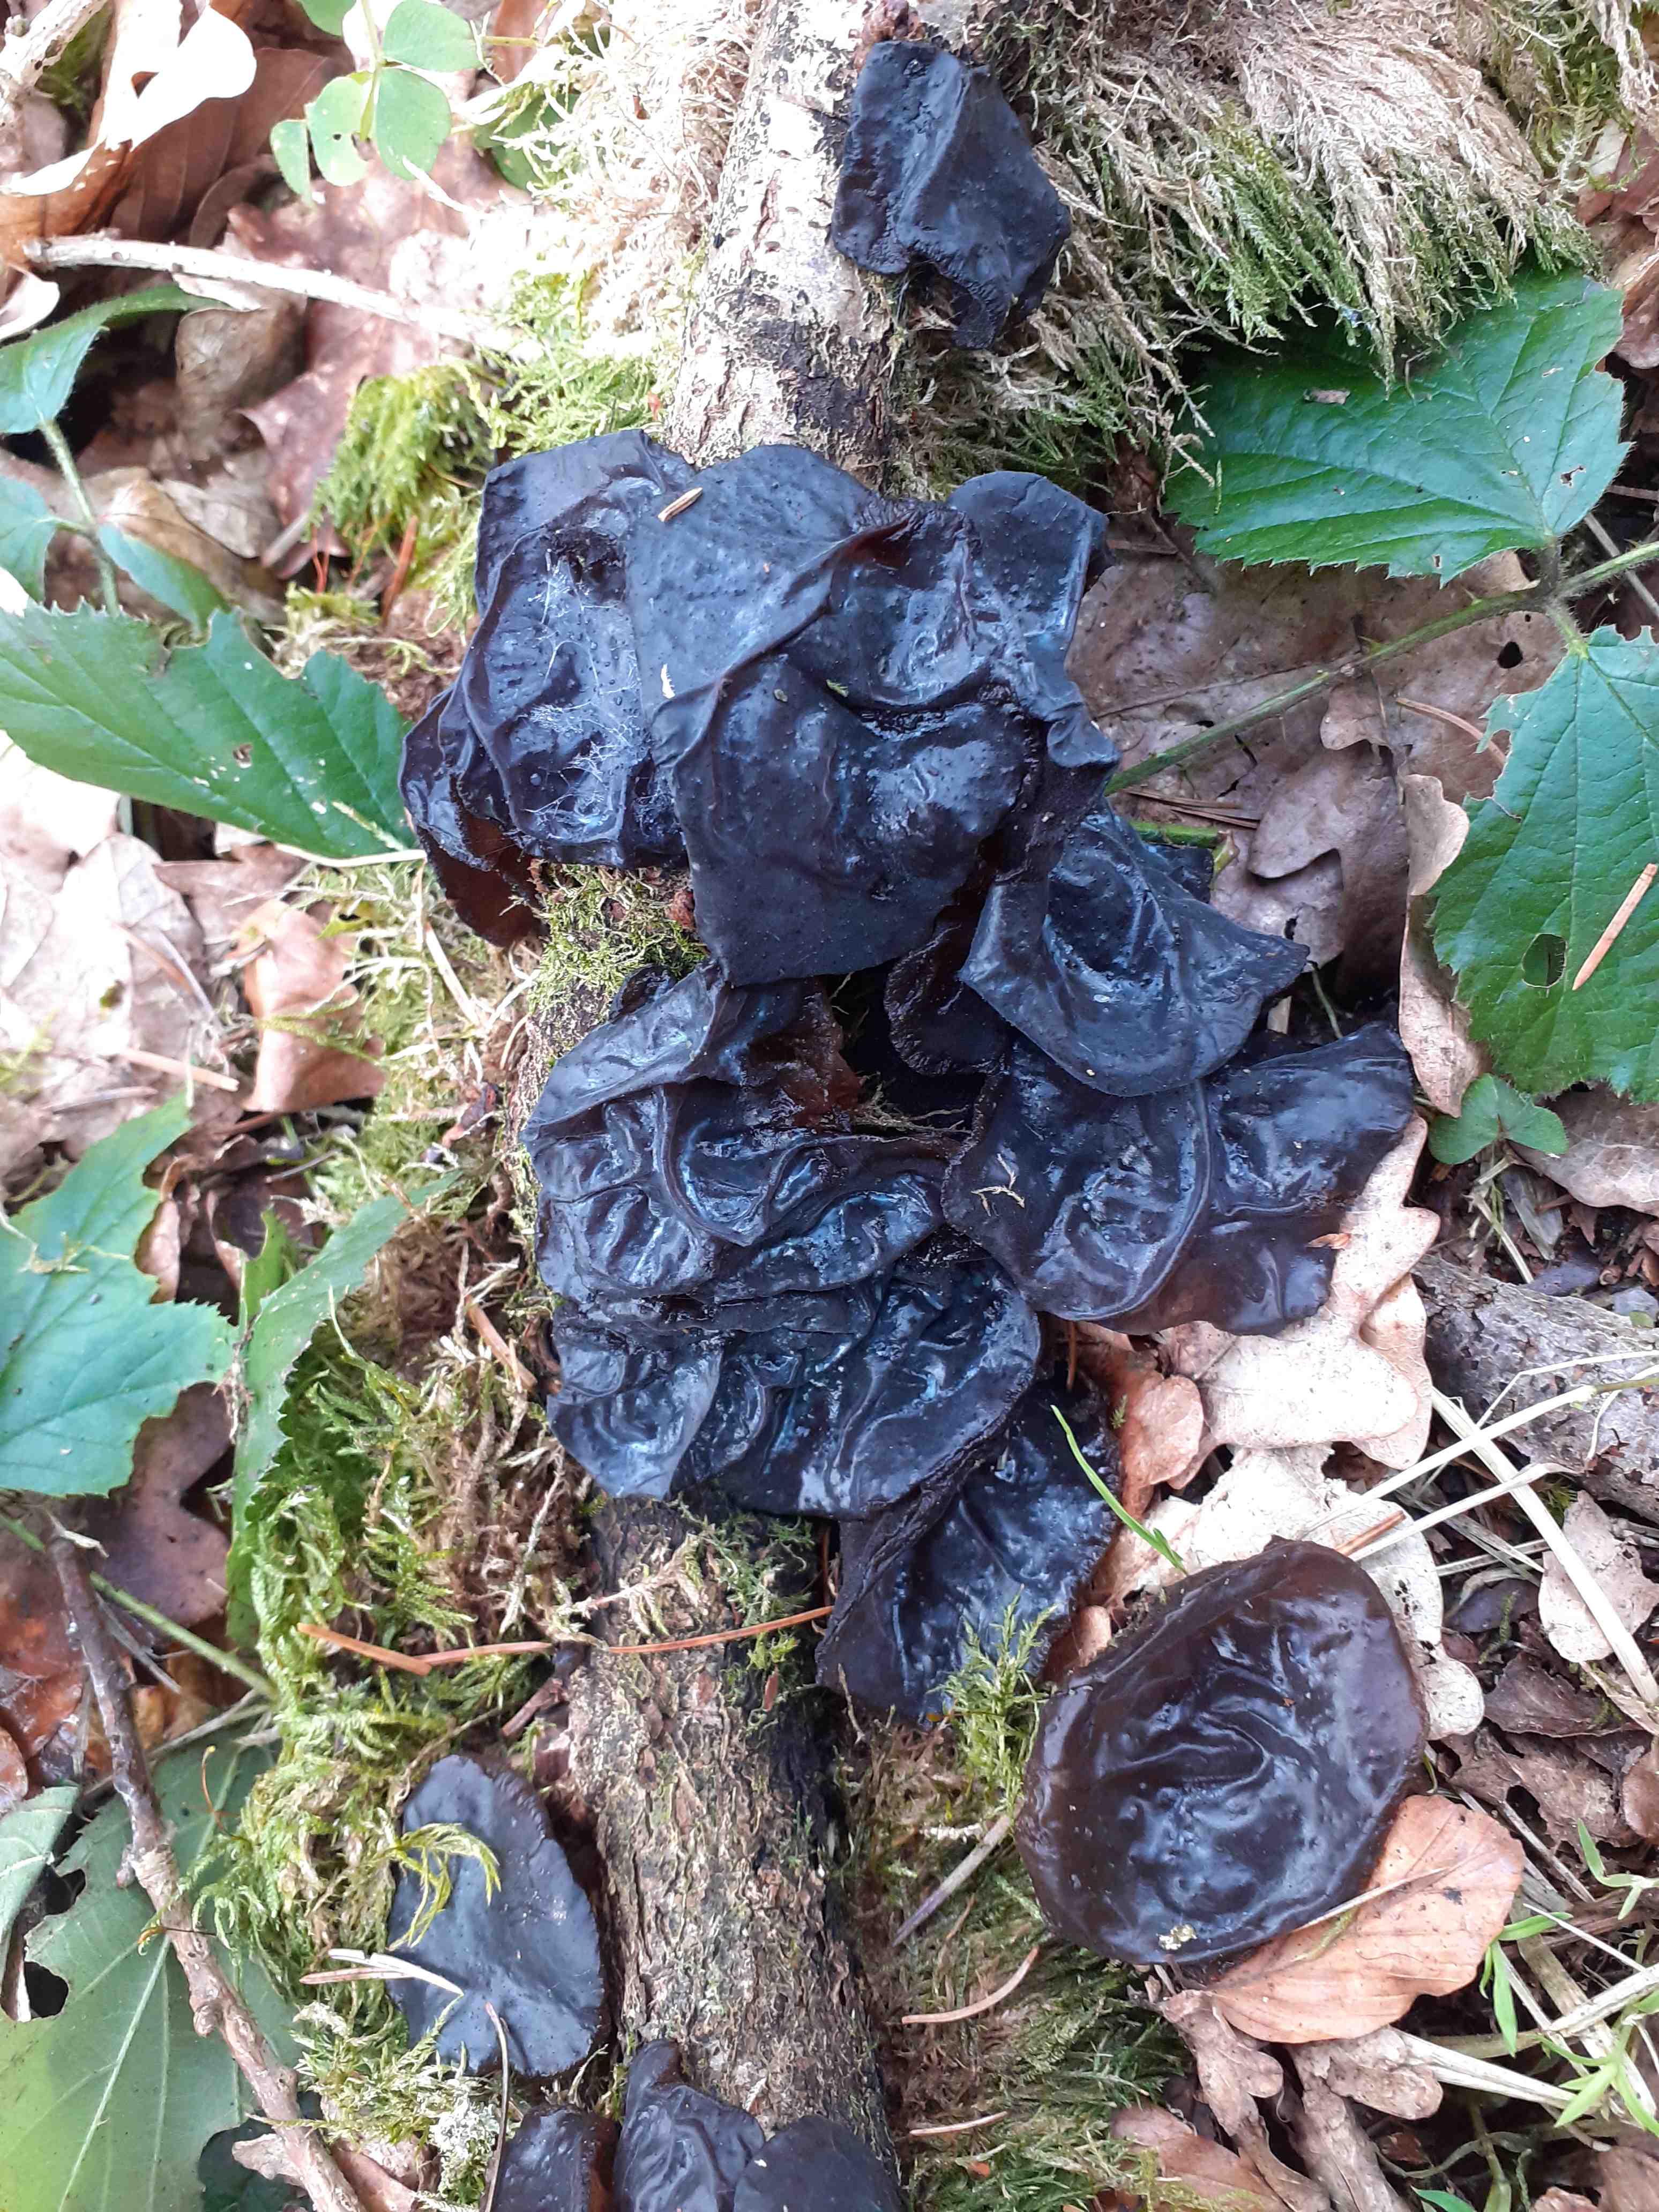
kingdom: Fungi
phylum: Basidiomycota
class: Agaricomycetes
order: Auriculariales
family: Auriculariaceae
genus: Exidia
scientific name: Exidia glandulosa
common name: ege-bævretop
